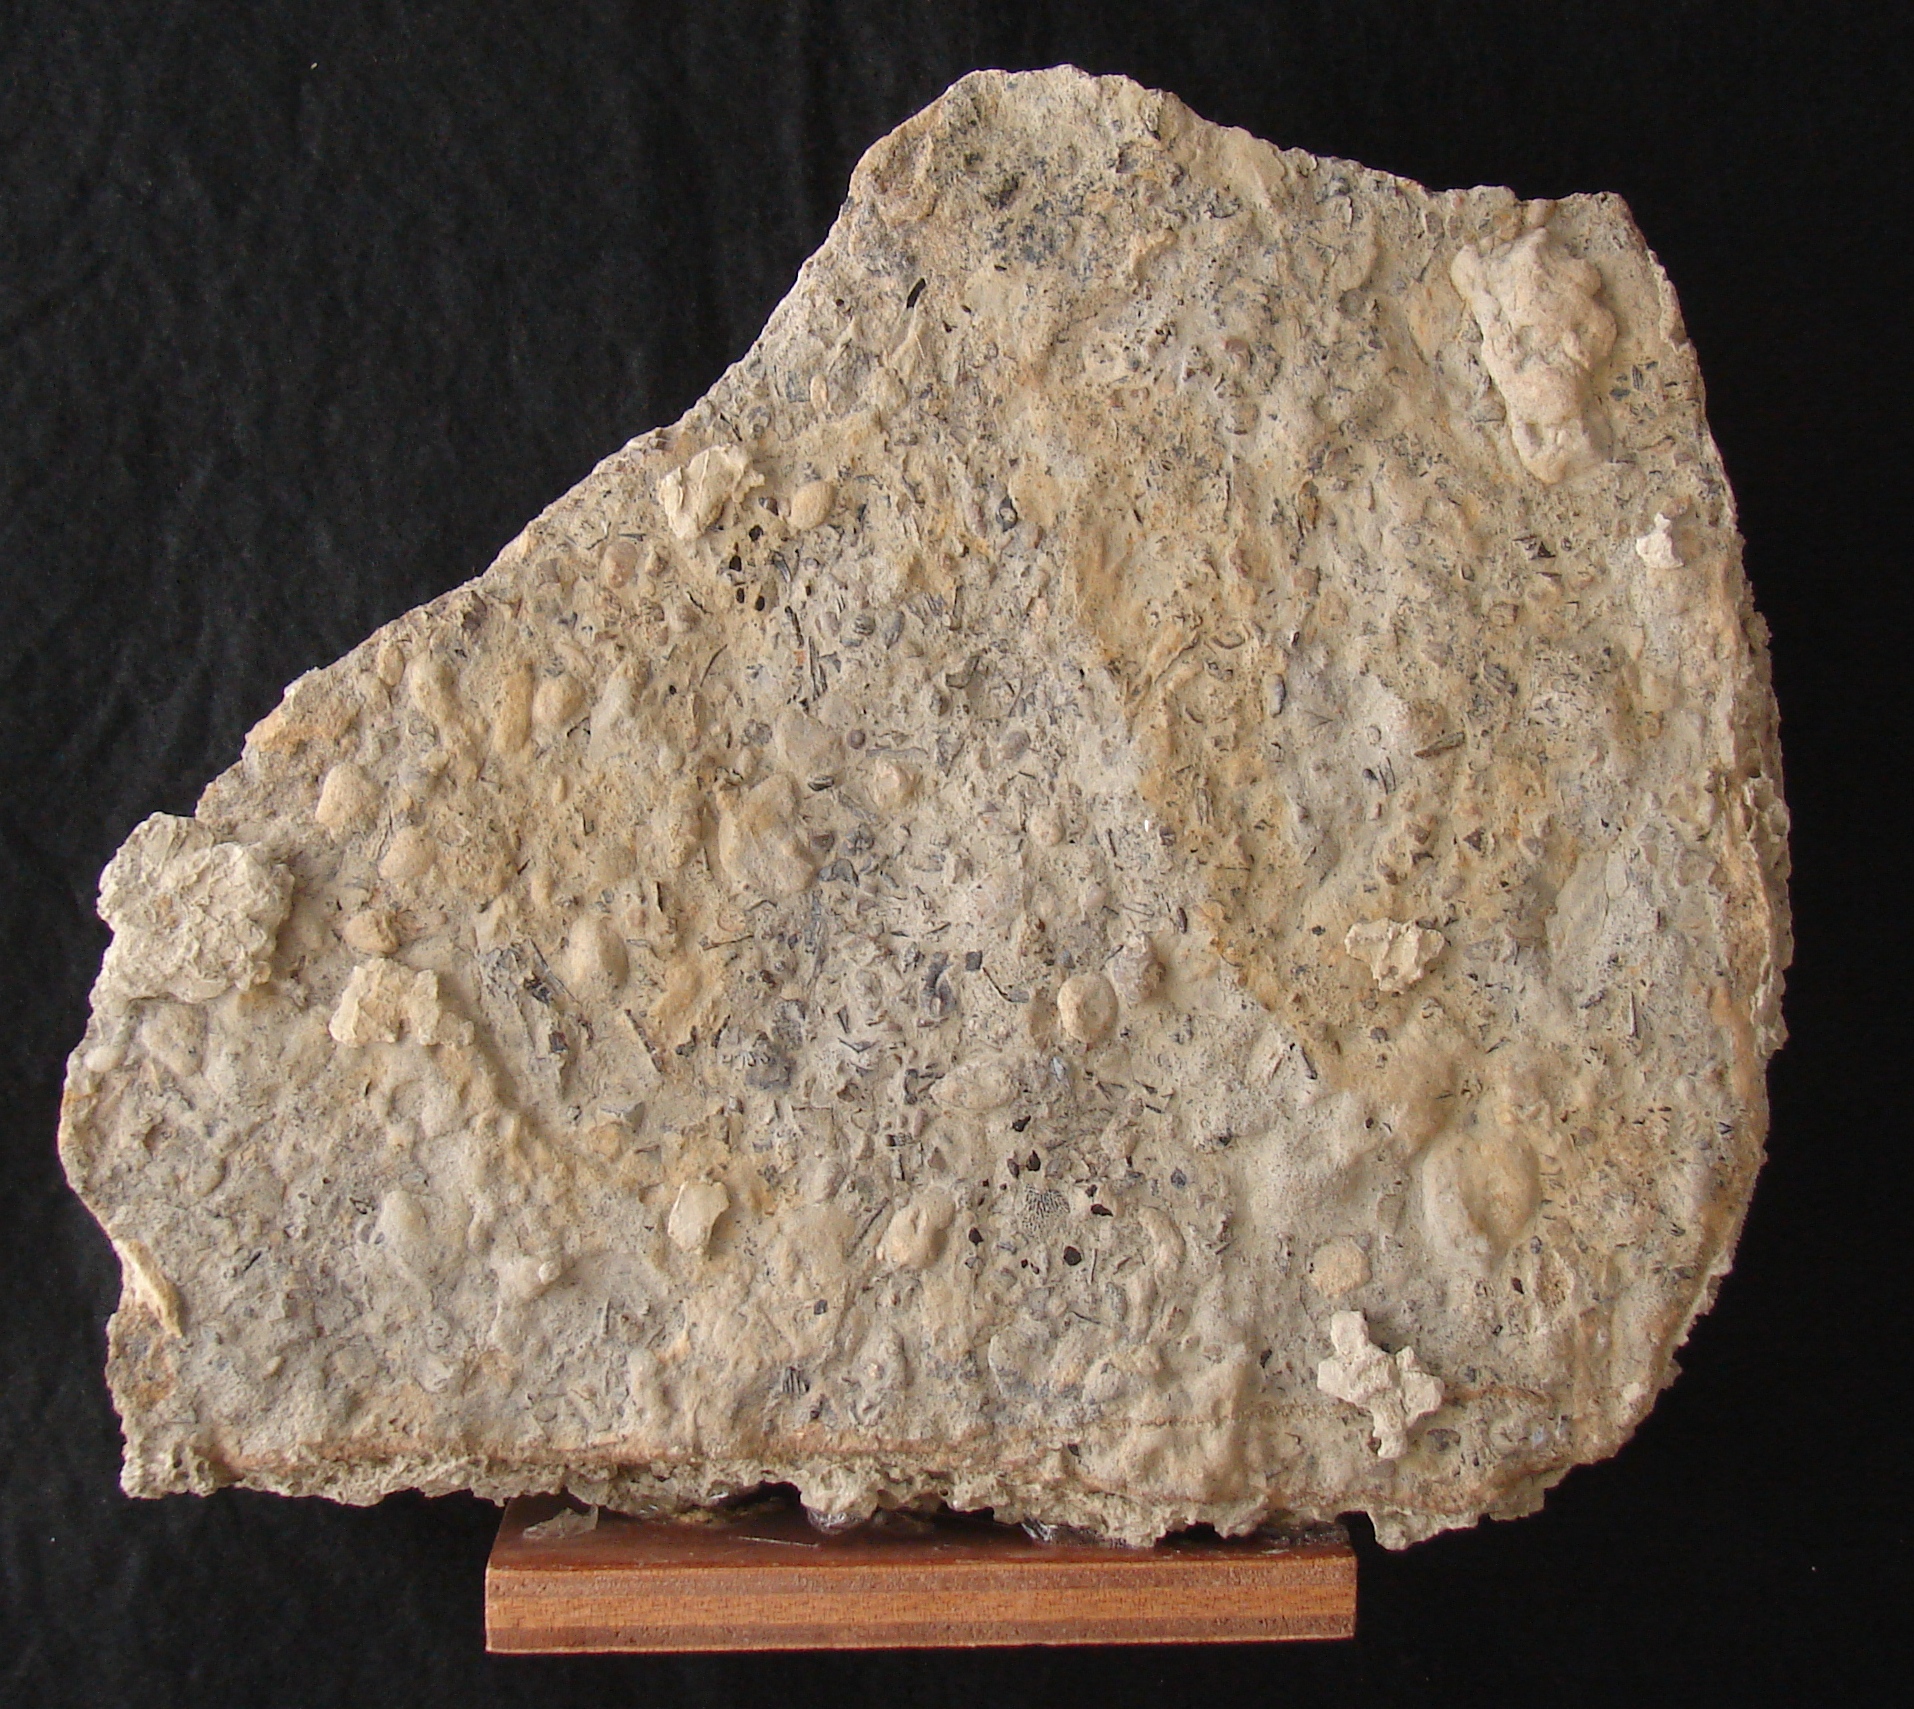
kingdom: Animalia
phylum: Chordata
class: Elasmobranchii
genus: Doratodus
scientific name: Doratodus
